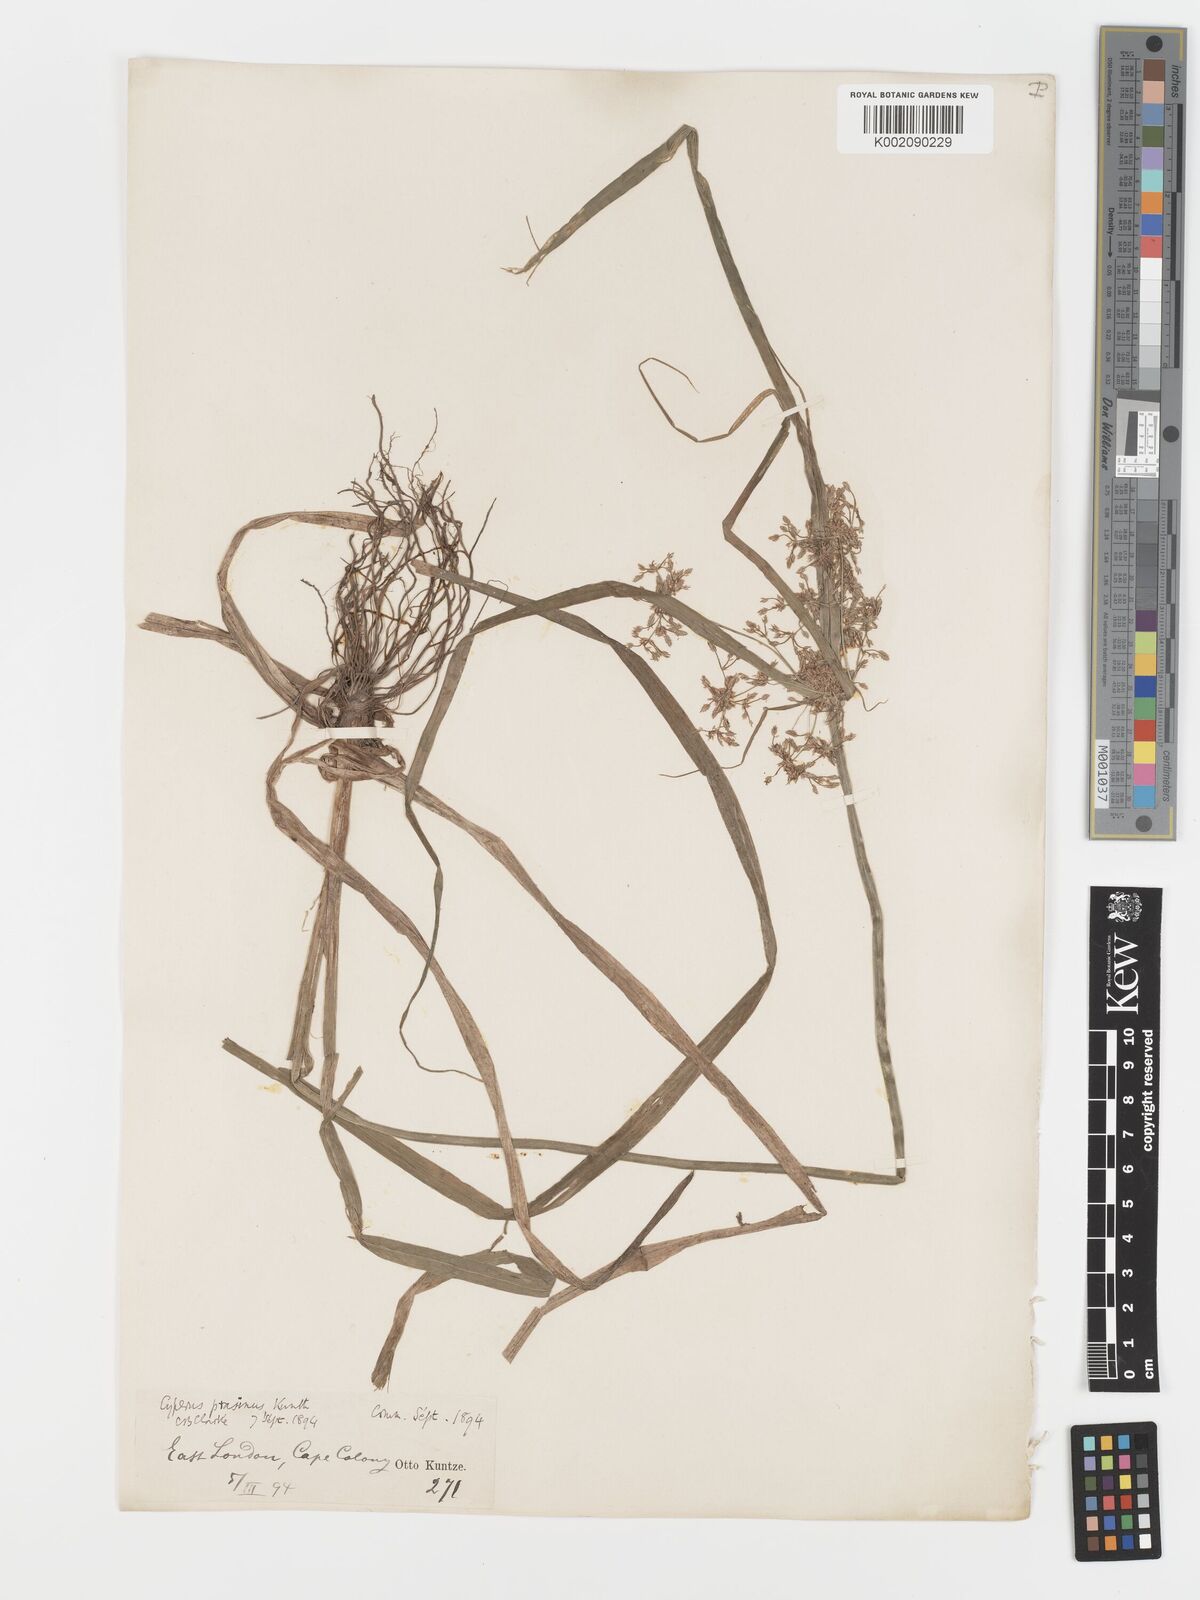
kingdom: Plantae
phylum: Tracheophyta
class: Liliopsida
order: Poales
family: Cyperaceae
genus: Cyperus
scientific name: Cyperus albostriatus
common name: Dwarf umbrella-grass
